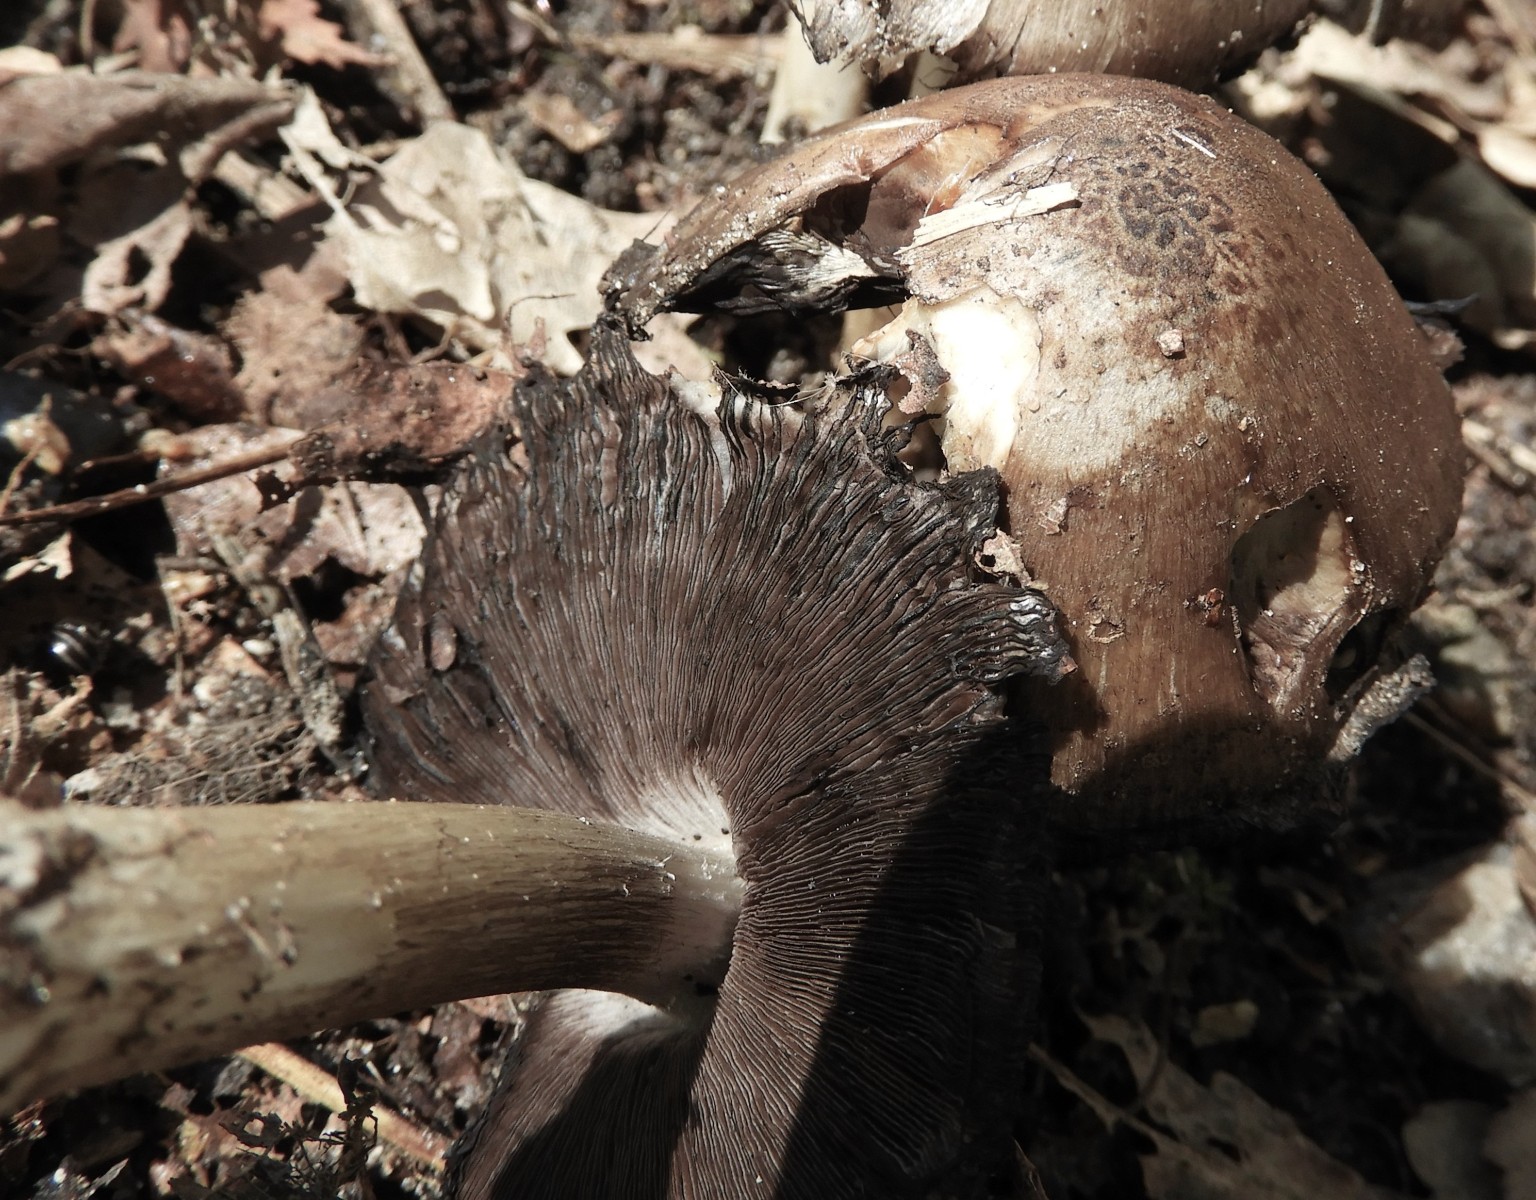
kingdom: Fungi
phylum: Basidiomycota
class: Agaricomycetes
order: Agaricales
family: Psathyrellaceae
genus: Coprinopsis
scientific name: Coprinopsis
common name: blækhat
